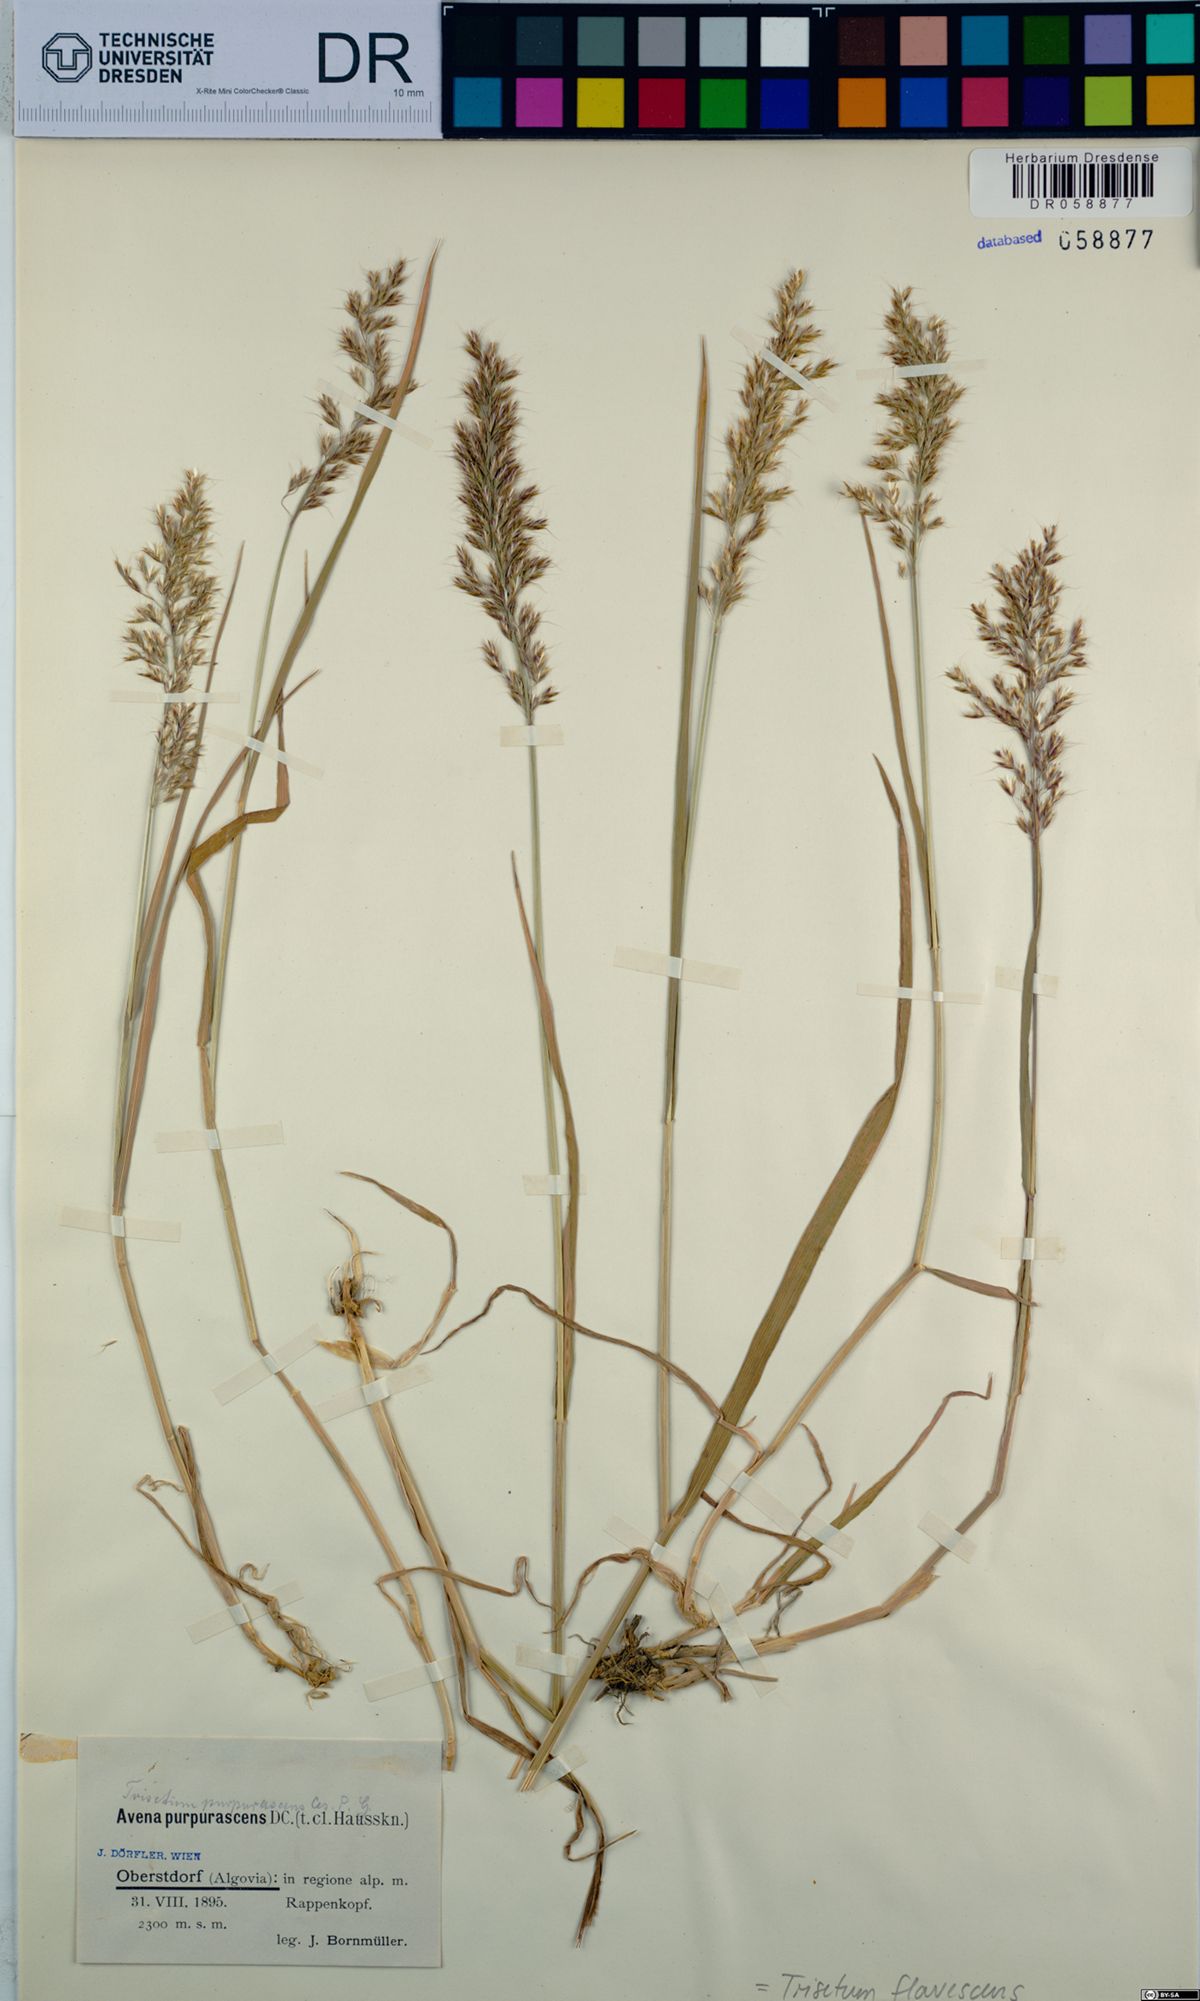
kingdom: Plantae
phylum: Tracheophyta
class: Liliopsida
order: Poales
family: Poaceae
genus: Trisetum
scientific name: Trisetum flavescens
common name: Yellow oat-grass
